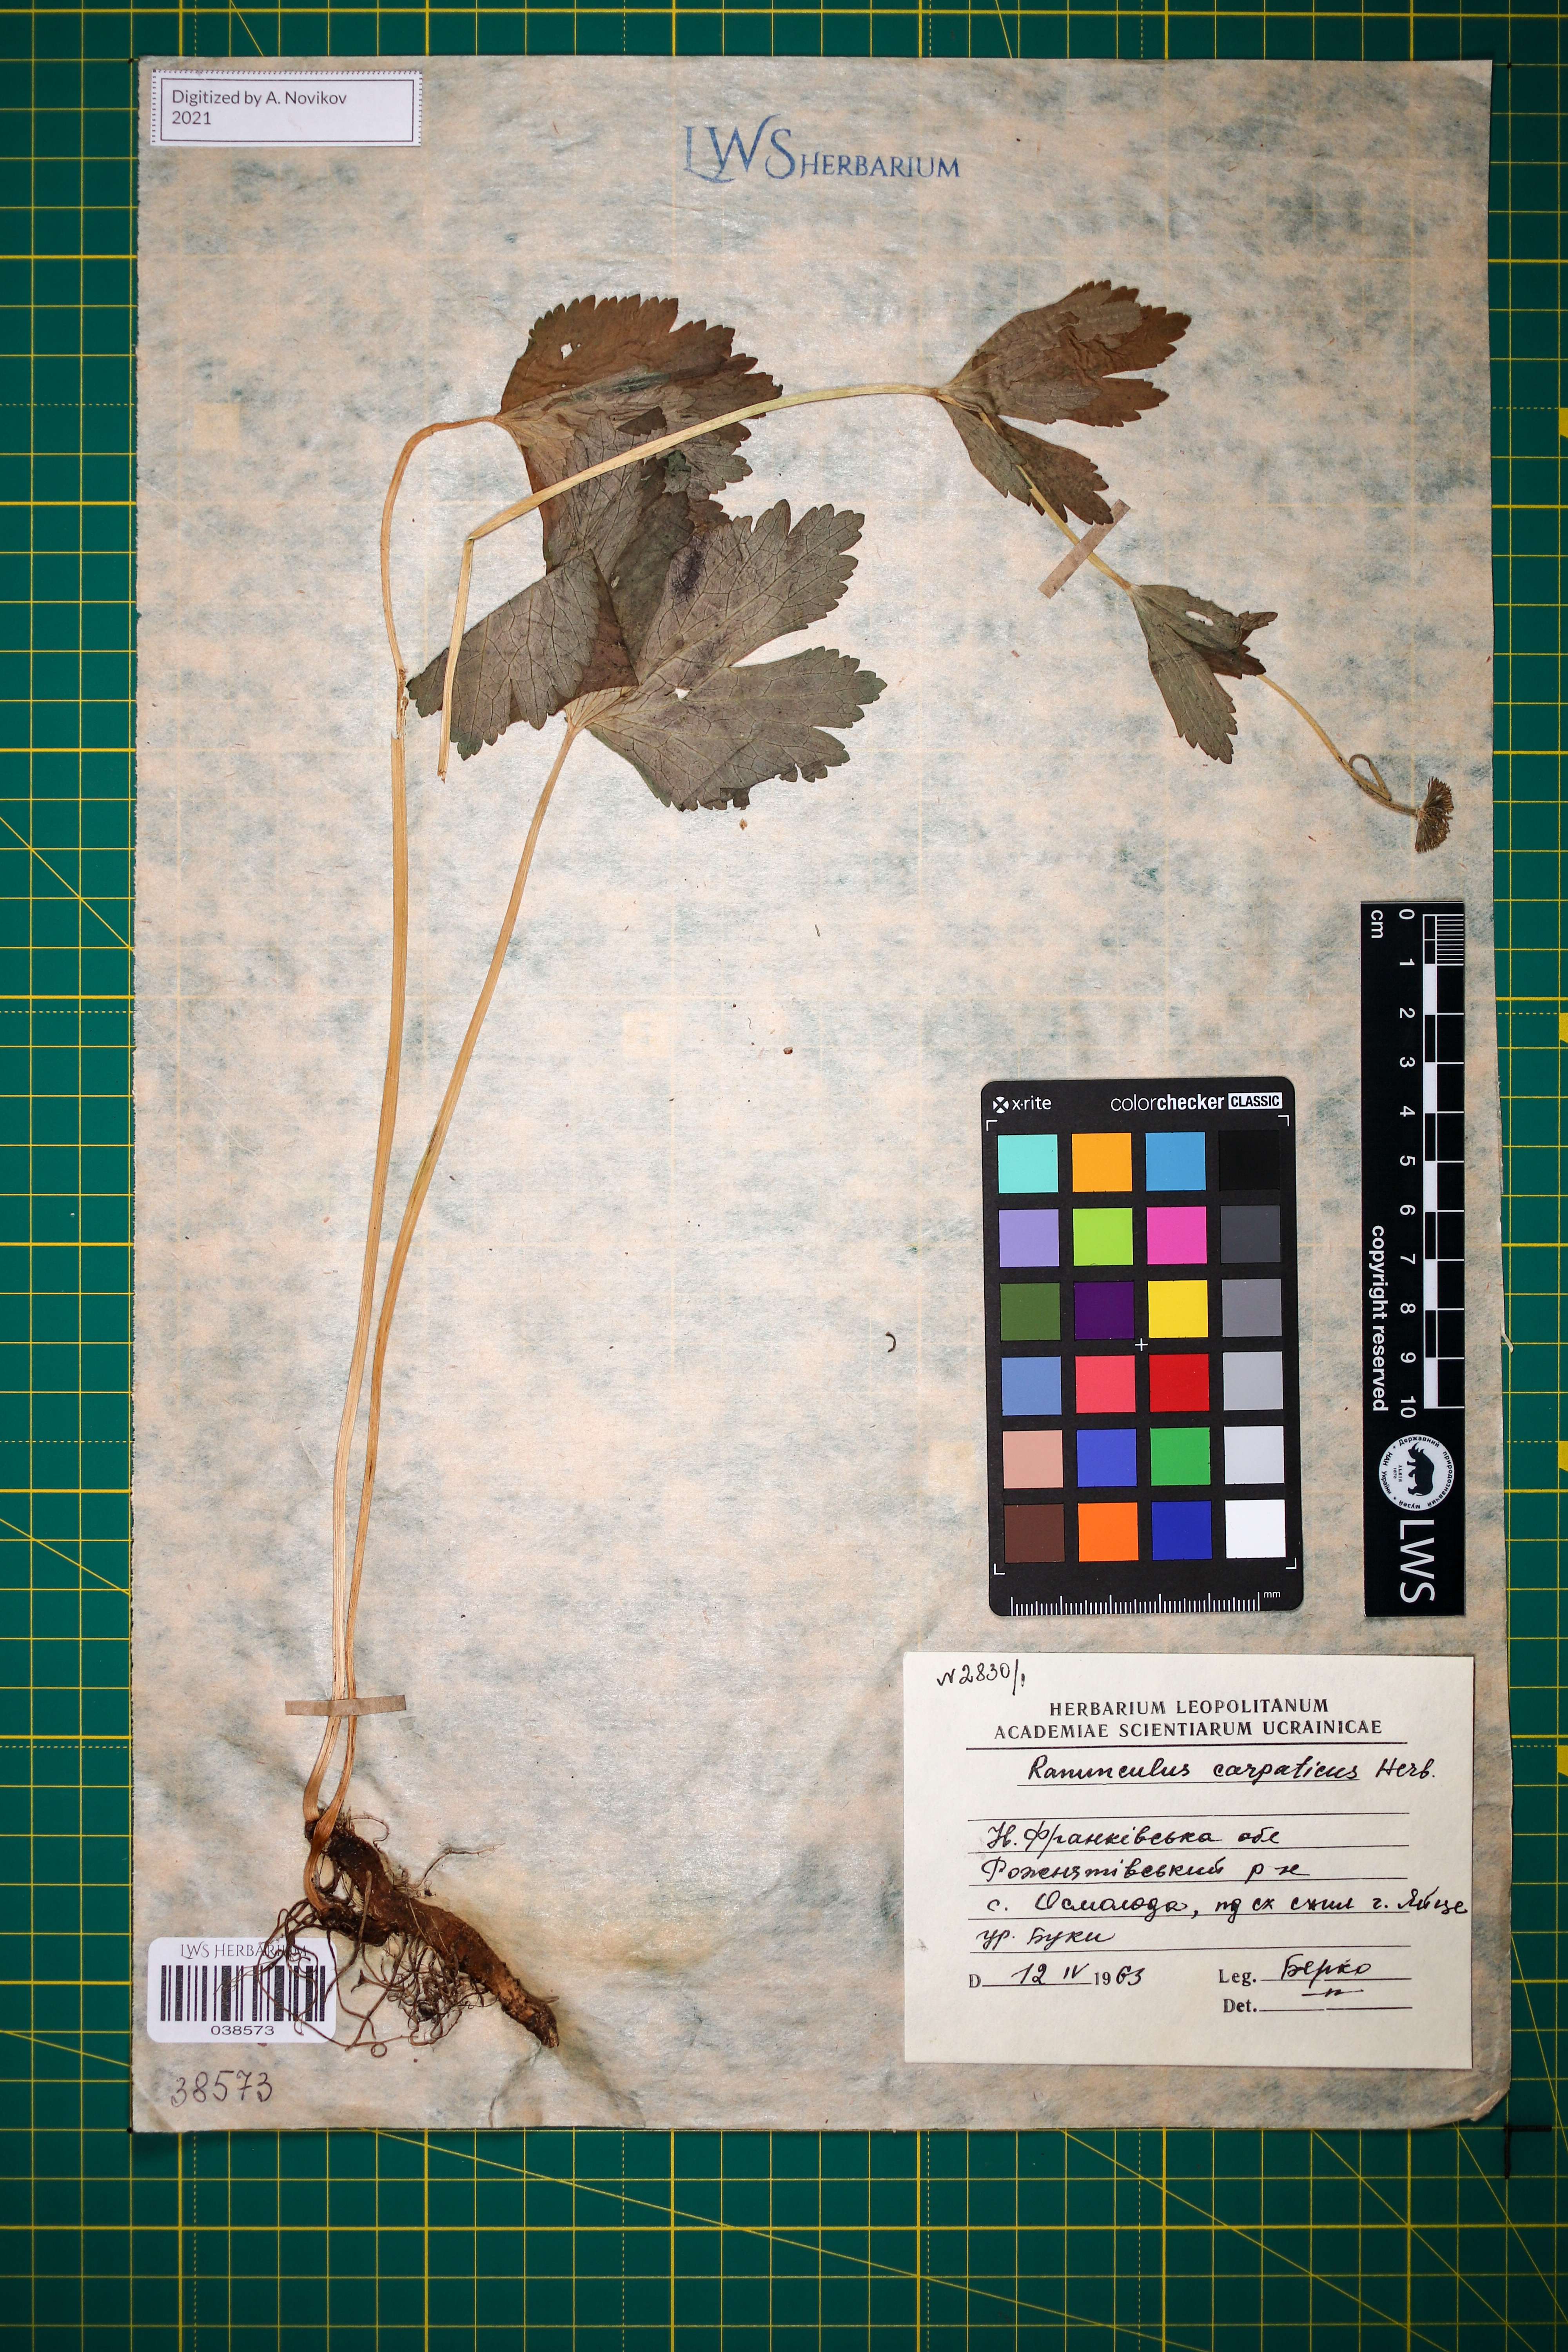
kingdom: Plantae
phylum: Tracheophyta
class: Magnoliopsida
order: Ranunculales
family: Ranunculaceae
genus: Ranunculus
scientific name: Ranunculus carpaticus
